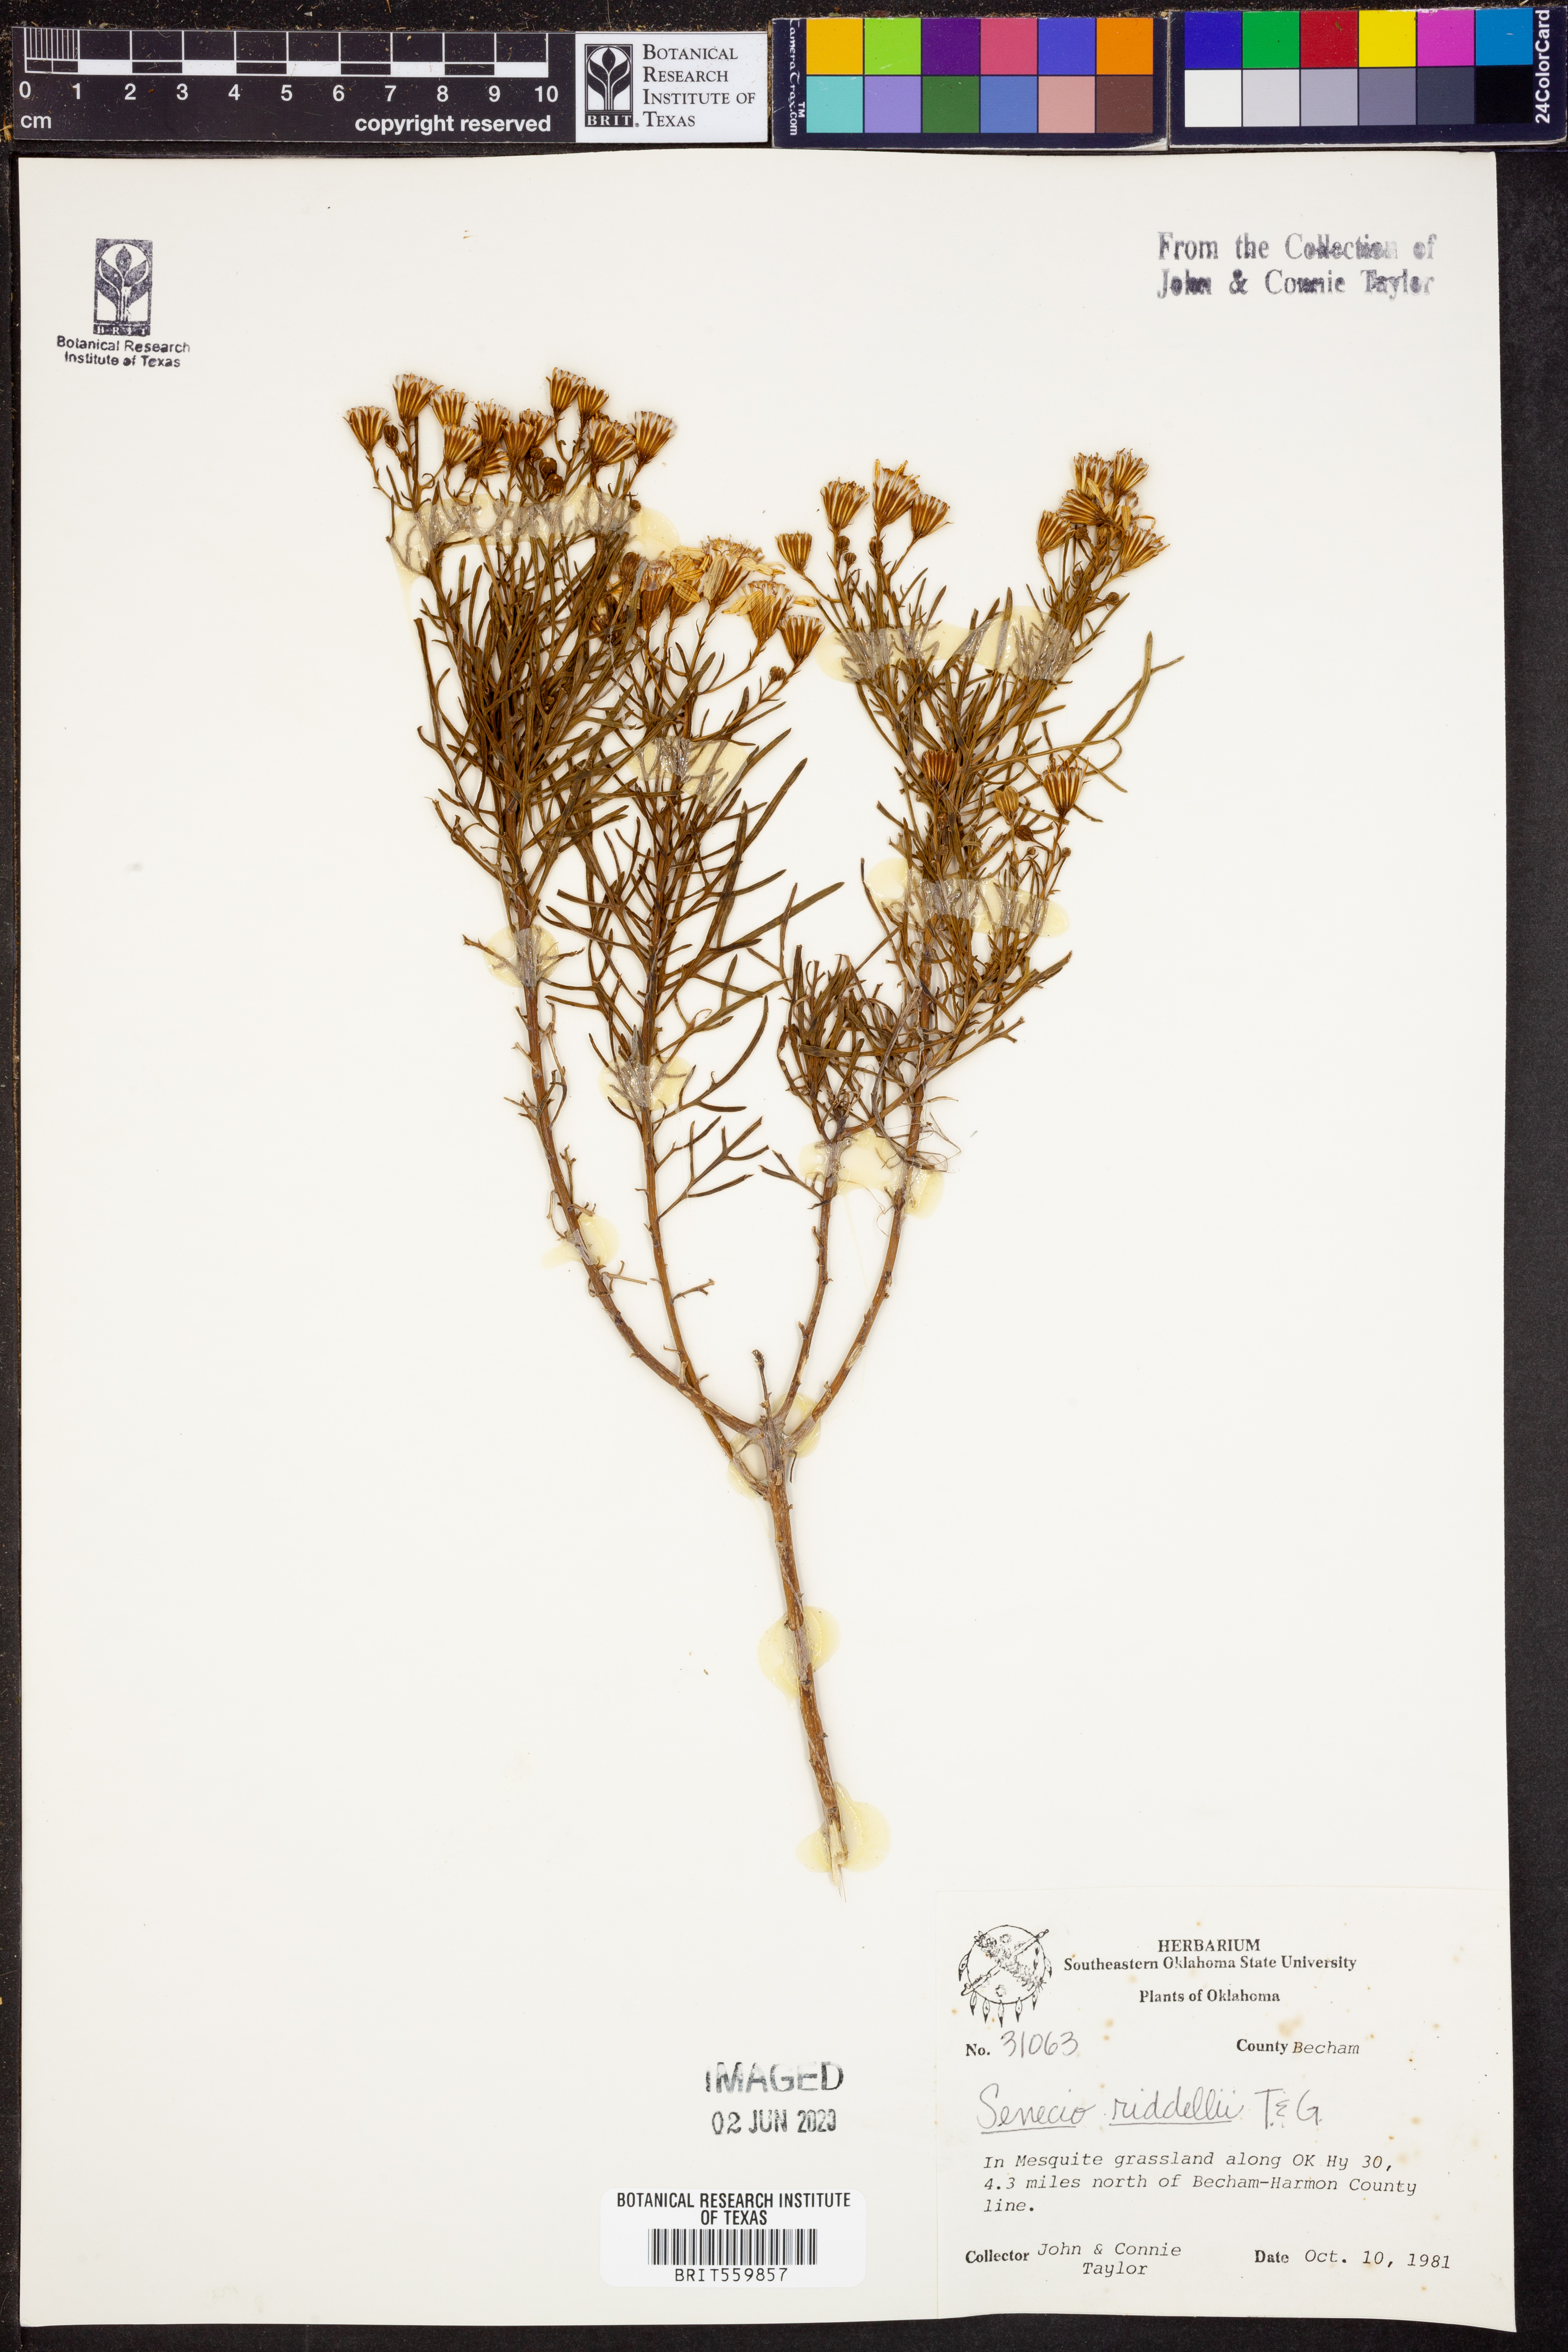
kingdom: Plantae
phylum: Tracheophyta
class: Magnoliopsida
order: Asterales
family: Asteraceae
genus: Senecio
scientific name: Senecio riddellii
